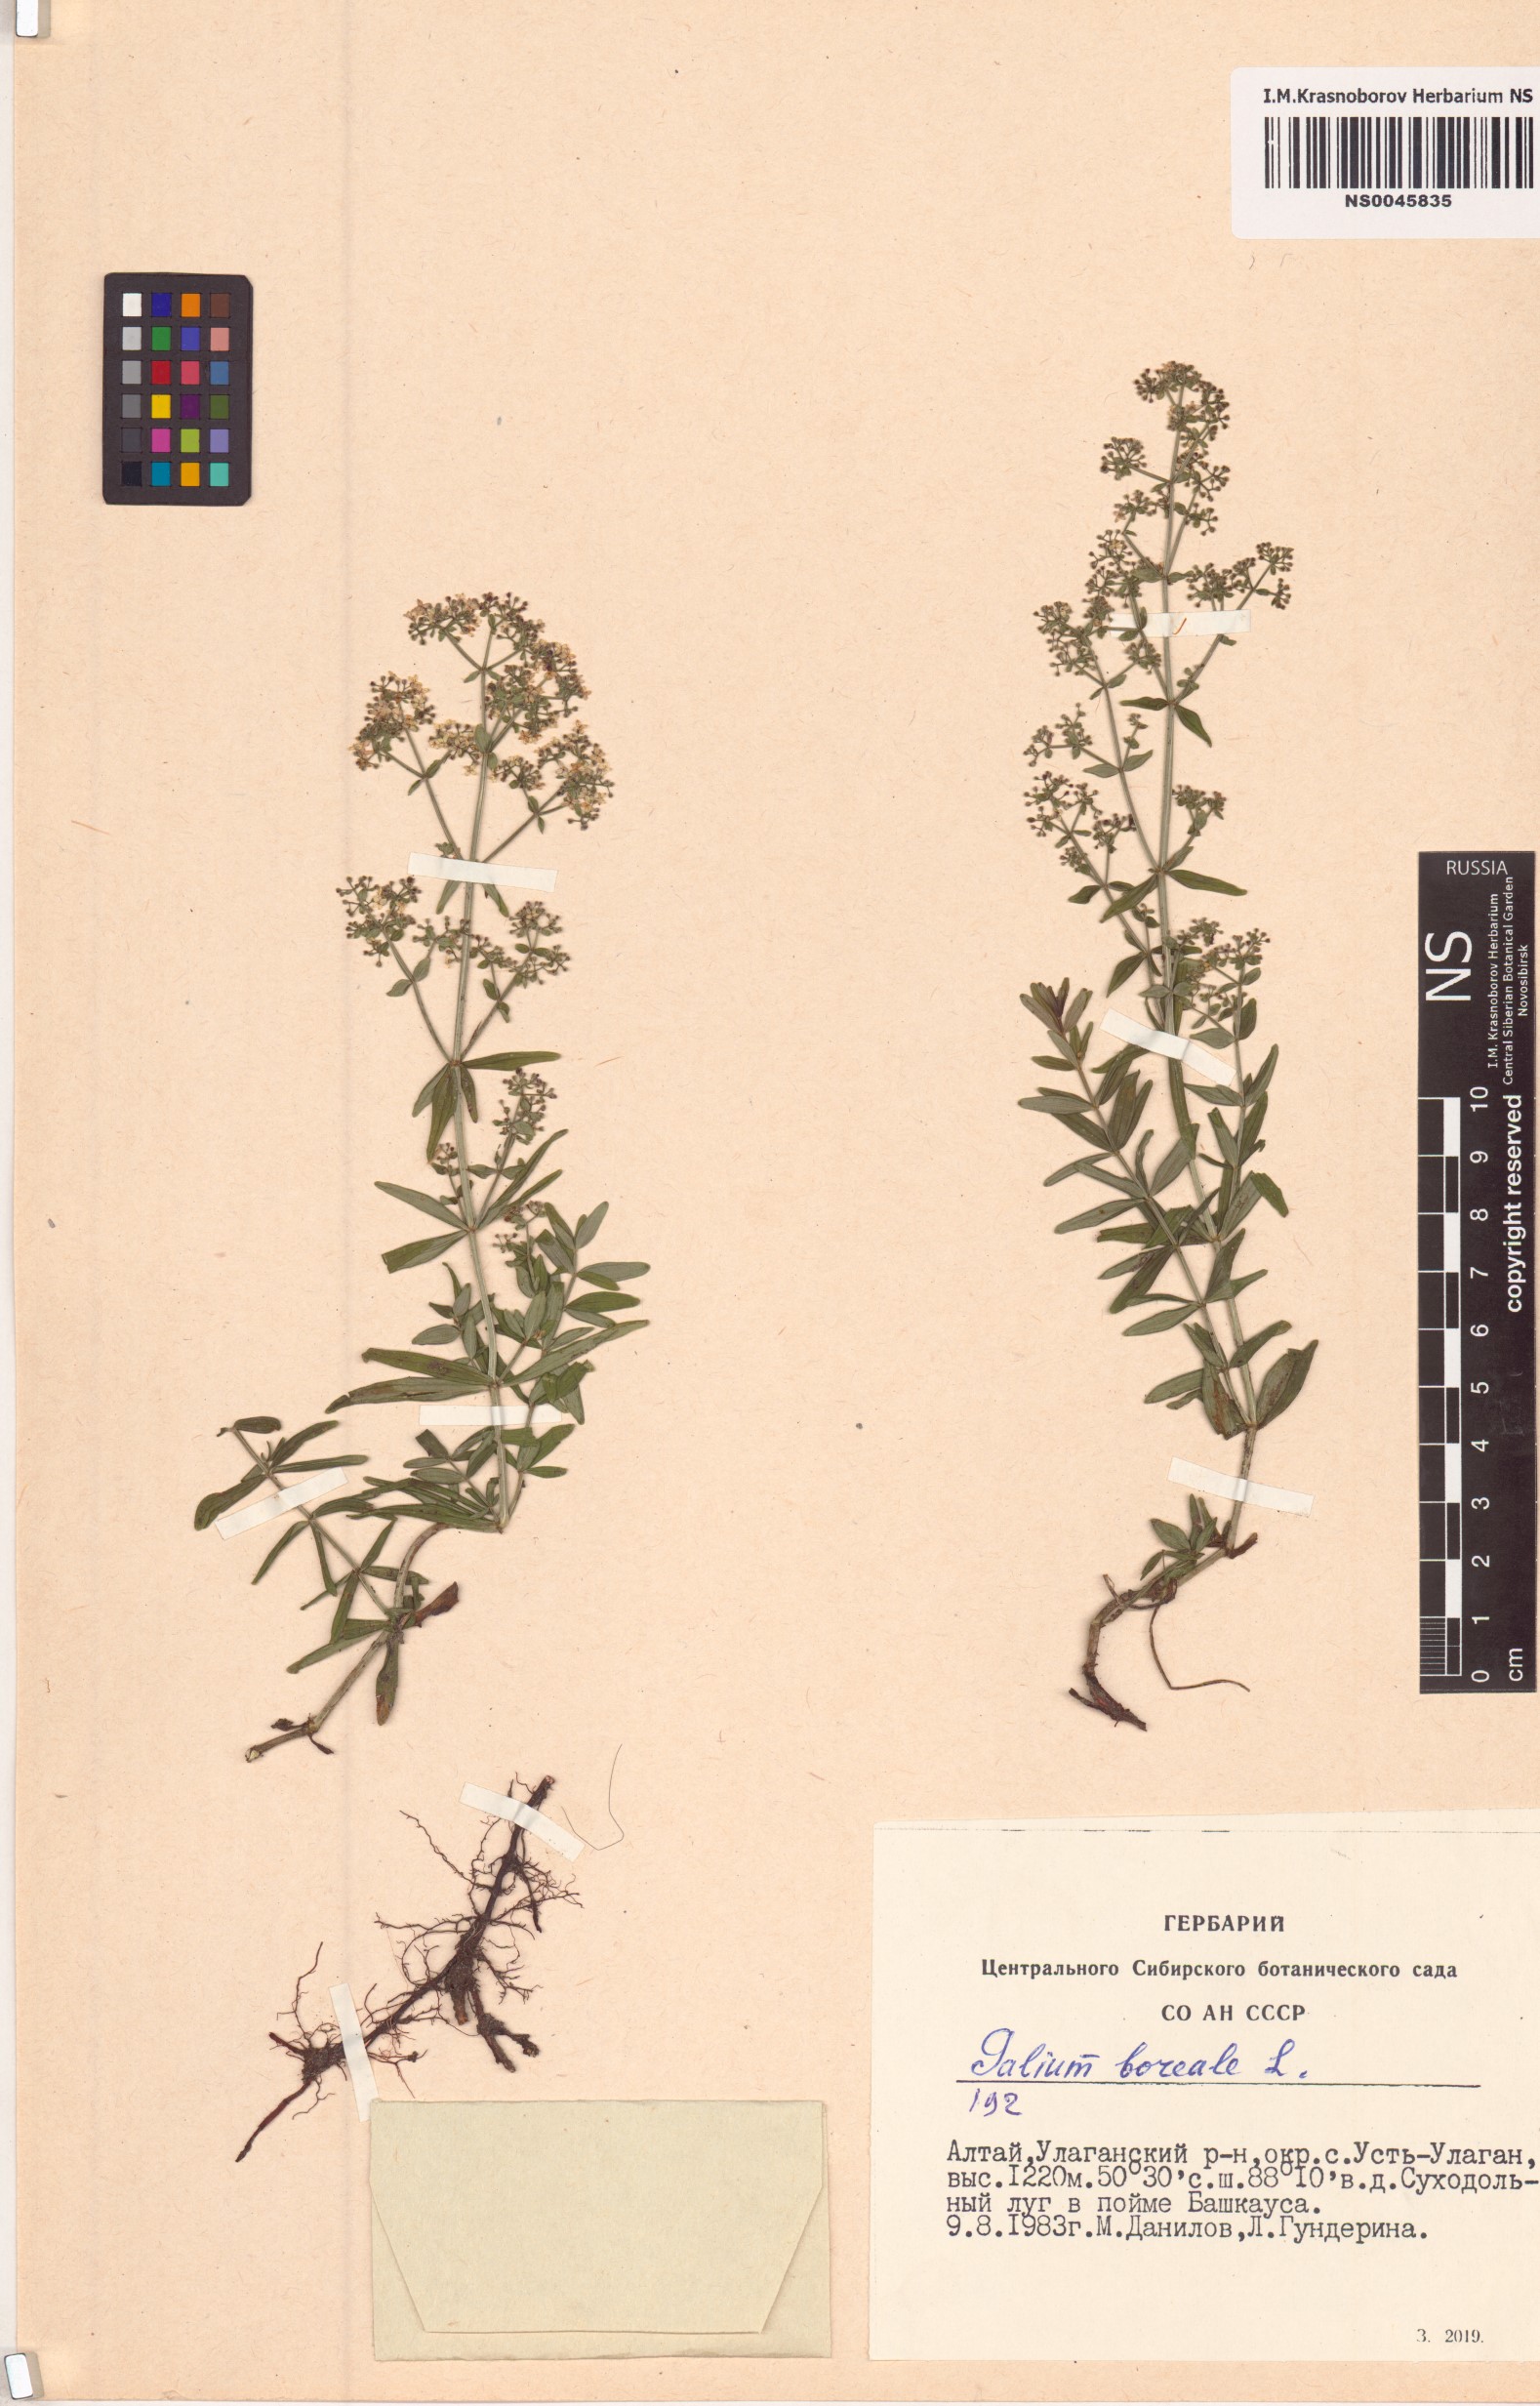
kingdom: Plantae
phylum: Tracheophyta
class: Magnoliopsida
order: Gentianales
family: Rubiaceae
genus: Galium
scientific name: Galium boreale
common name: Northern bedstraw
